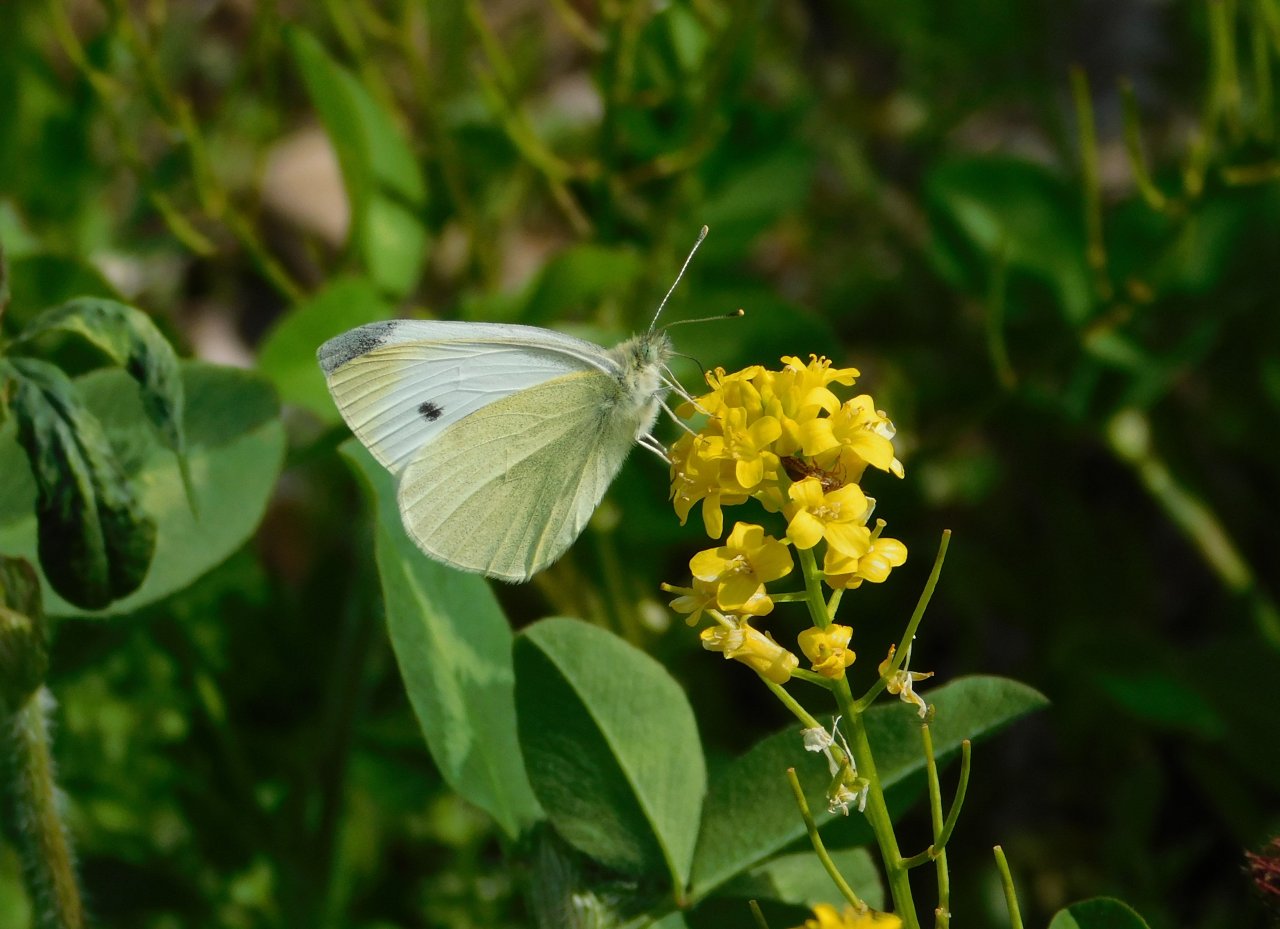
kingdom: Animalia
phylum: Arthropoda
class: Insecta
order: Lepidoptera
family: Pieridae
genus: Pieris
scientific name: Pieris rapae
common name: Cabbage White
